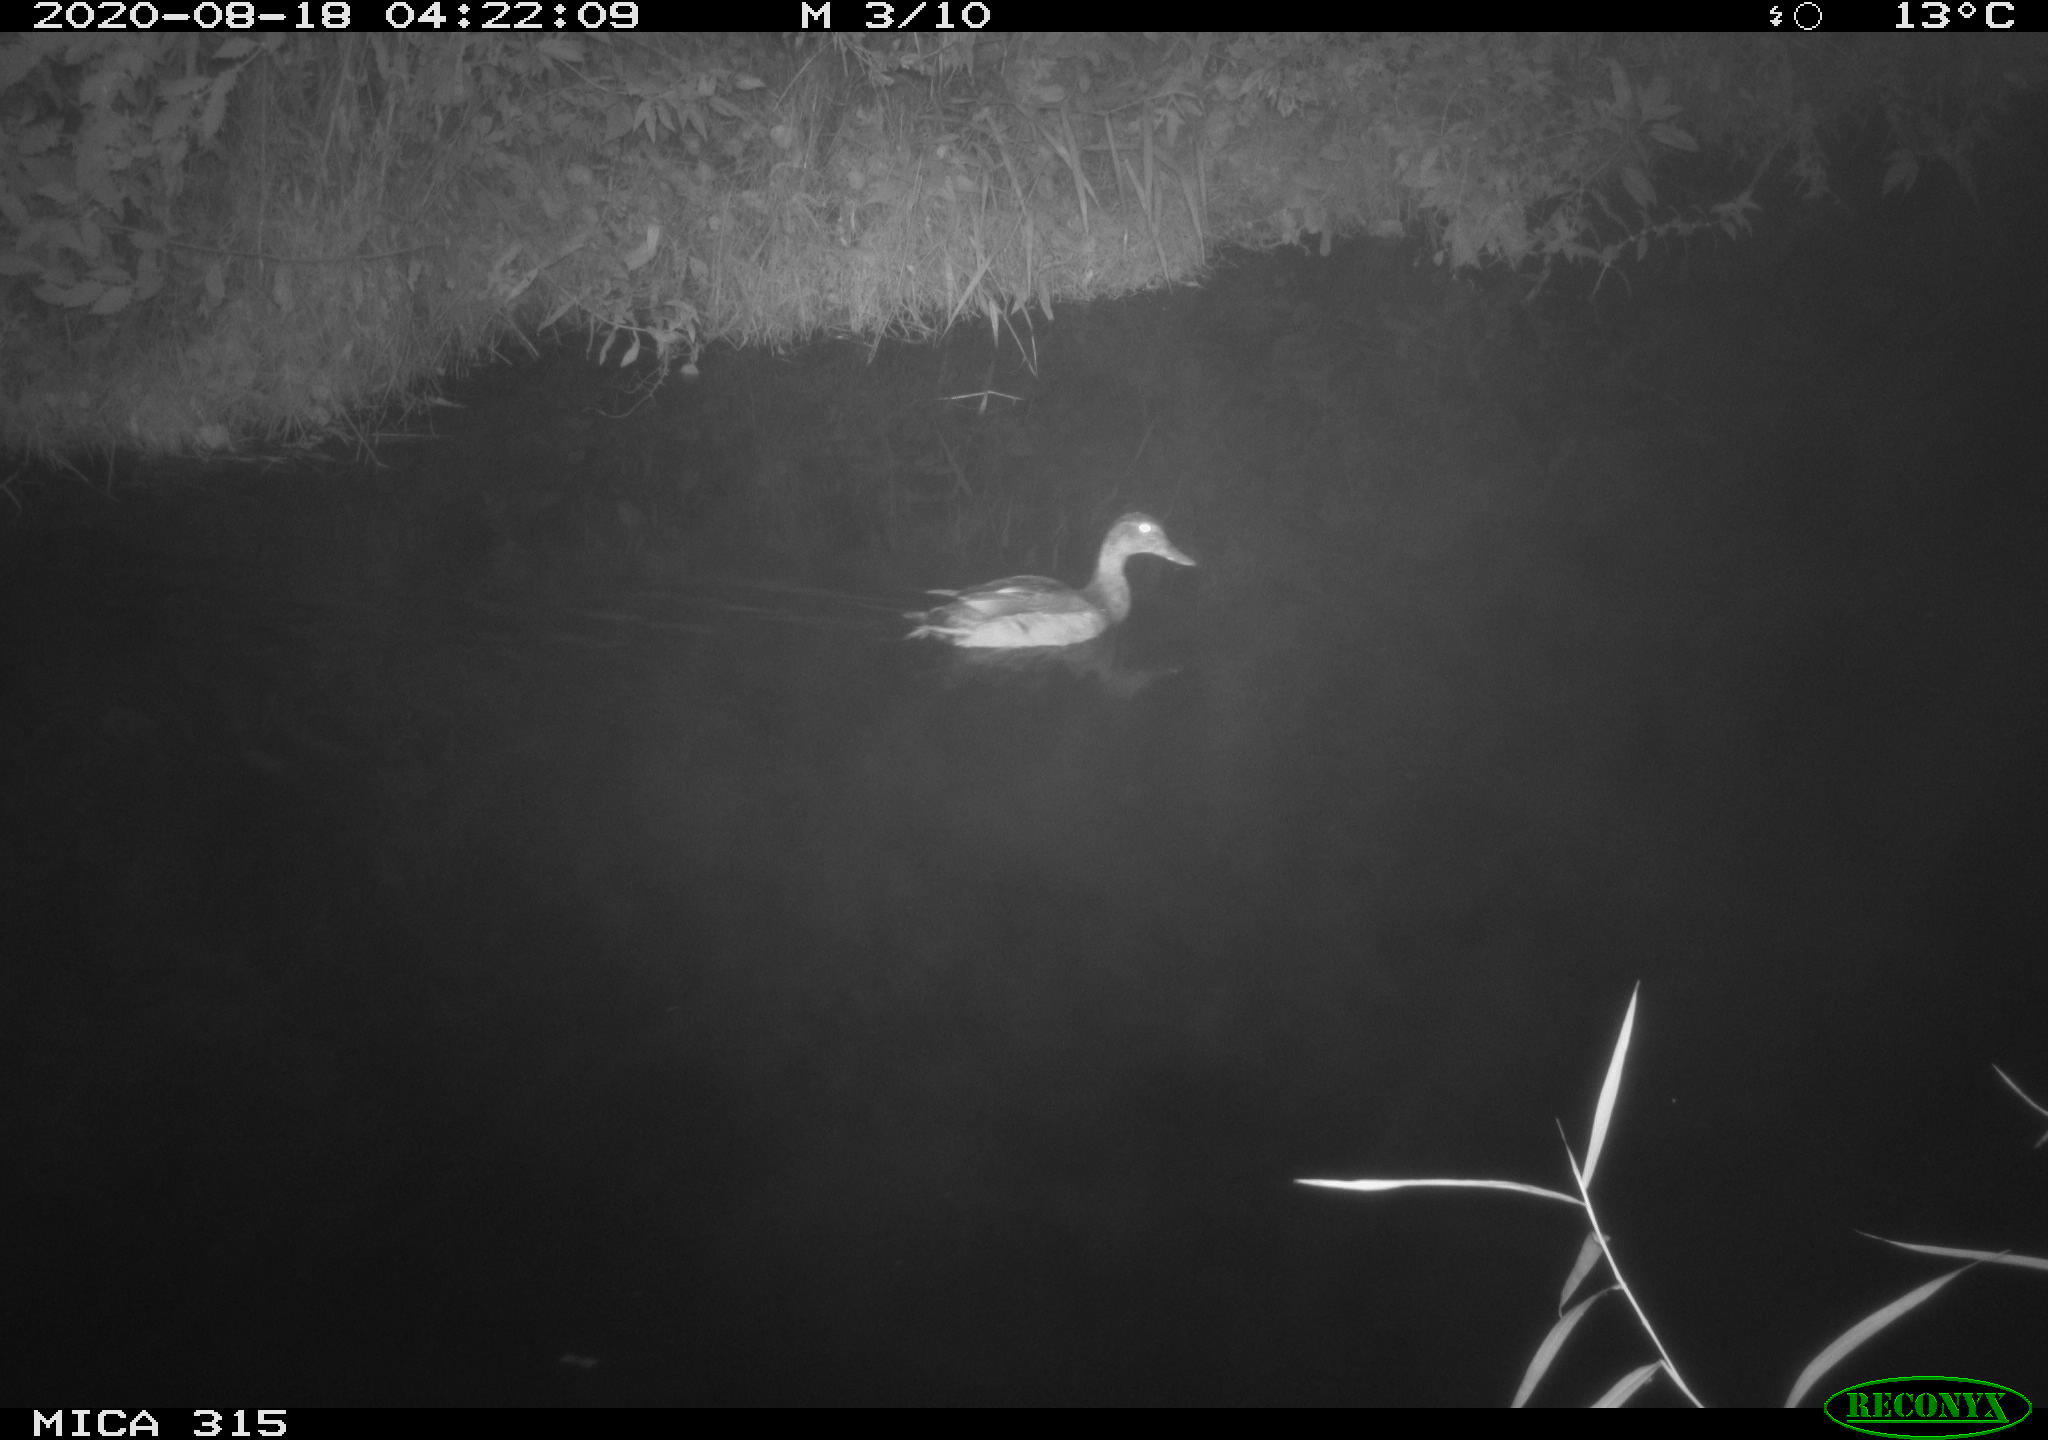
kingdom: Animalia
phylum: Chordata
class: Aves
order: Anseriformes
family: Anatidae
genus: Anas
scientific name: Anas platyrhynchos
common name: Mallard
